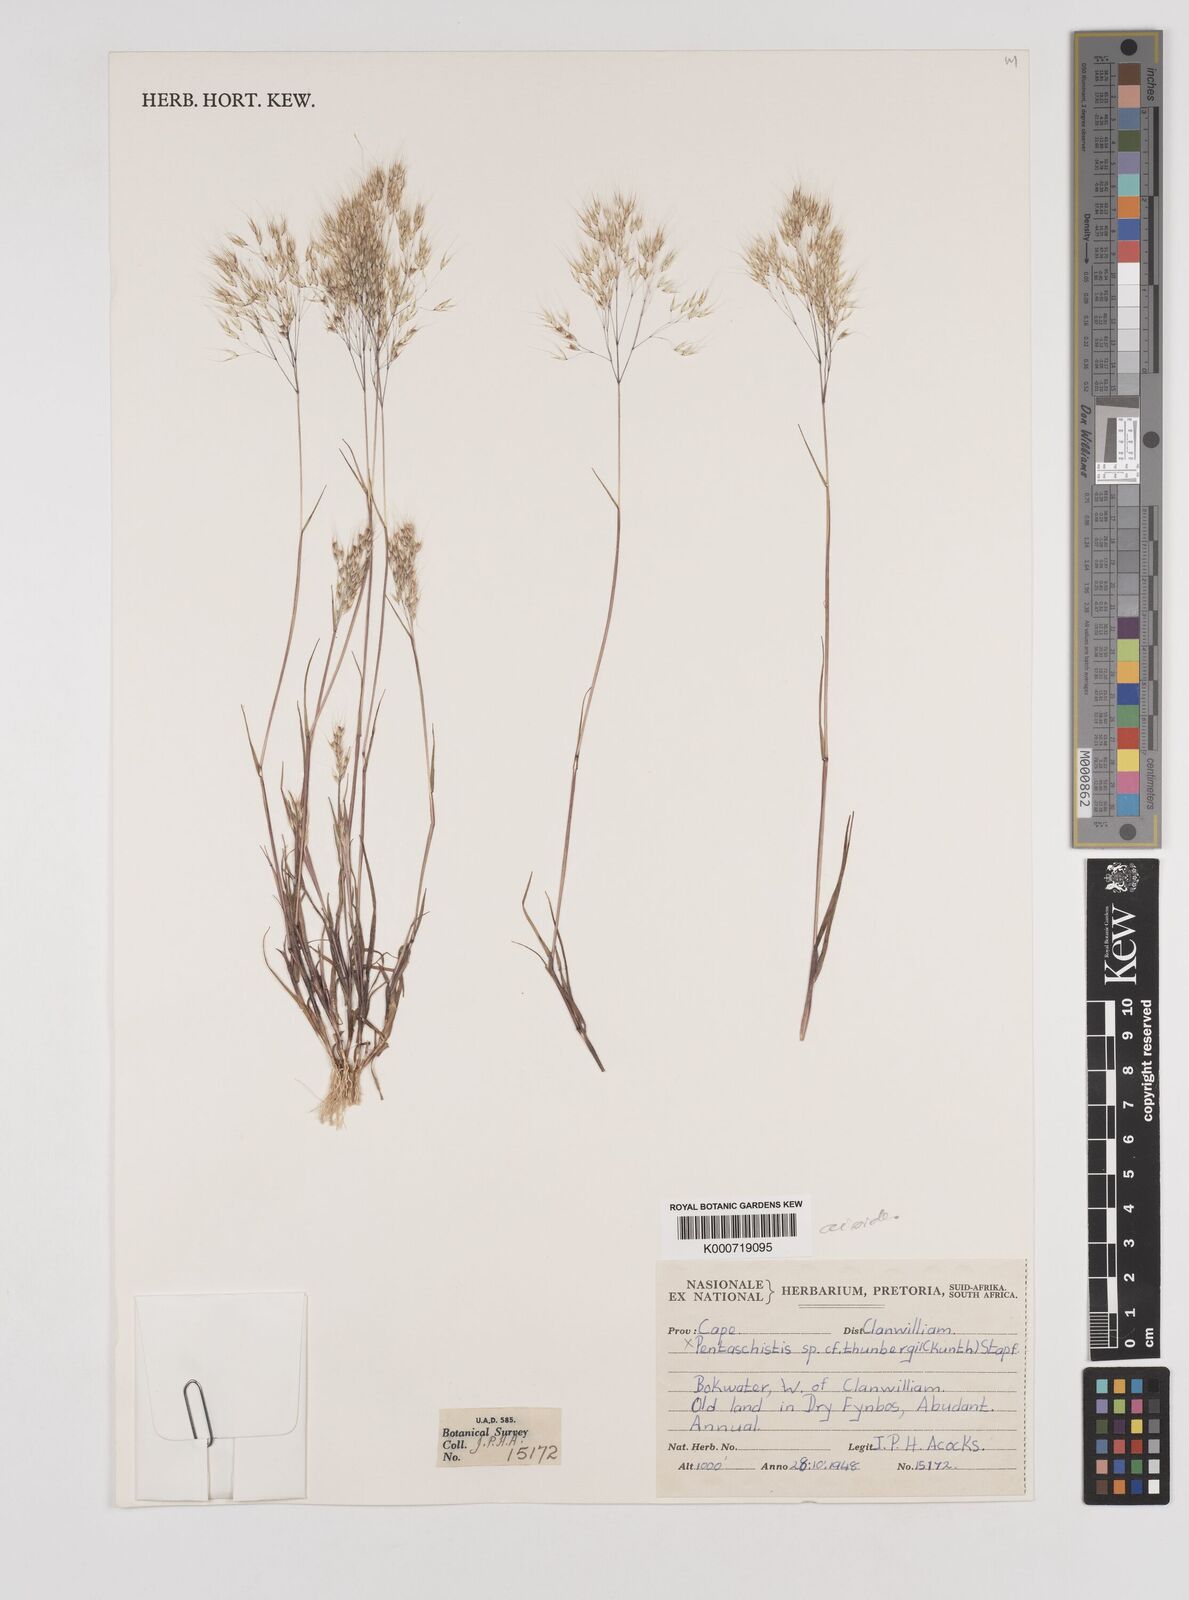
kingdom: Plantae
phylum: Tracheophyta
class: Liliopsida
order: Poales
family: Poaceae
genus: Pentameris
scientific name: Pentameris airoides
